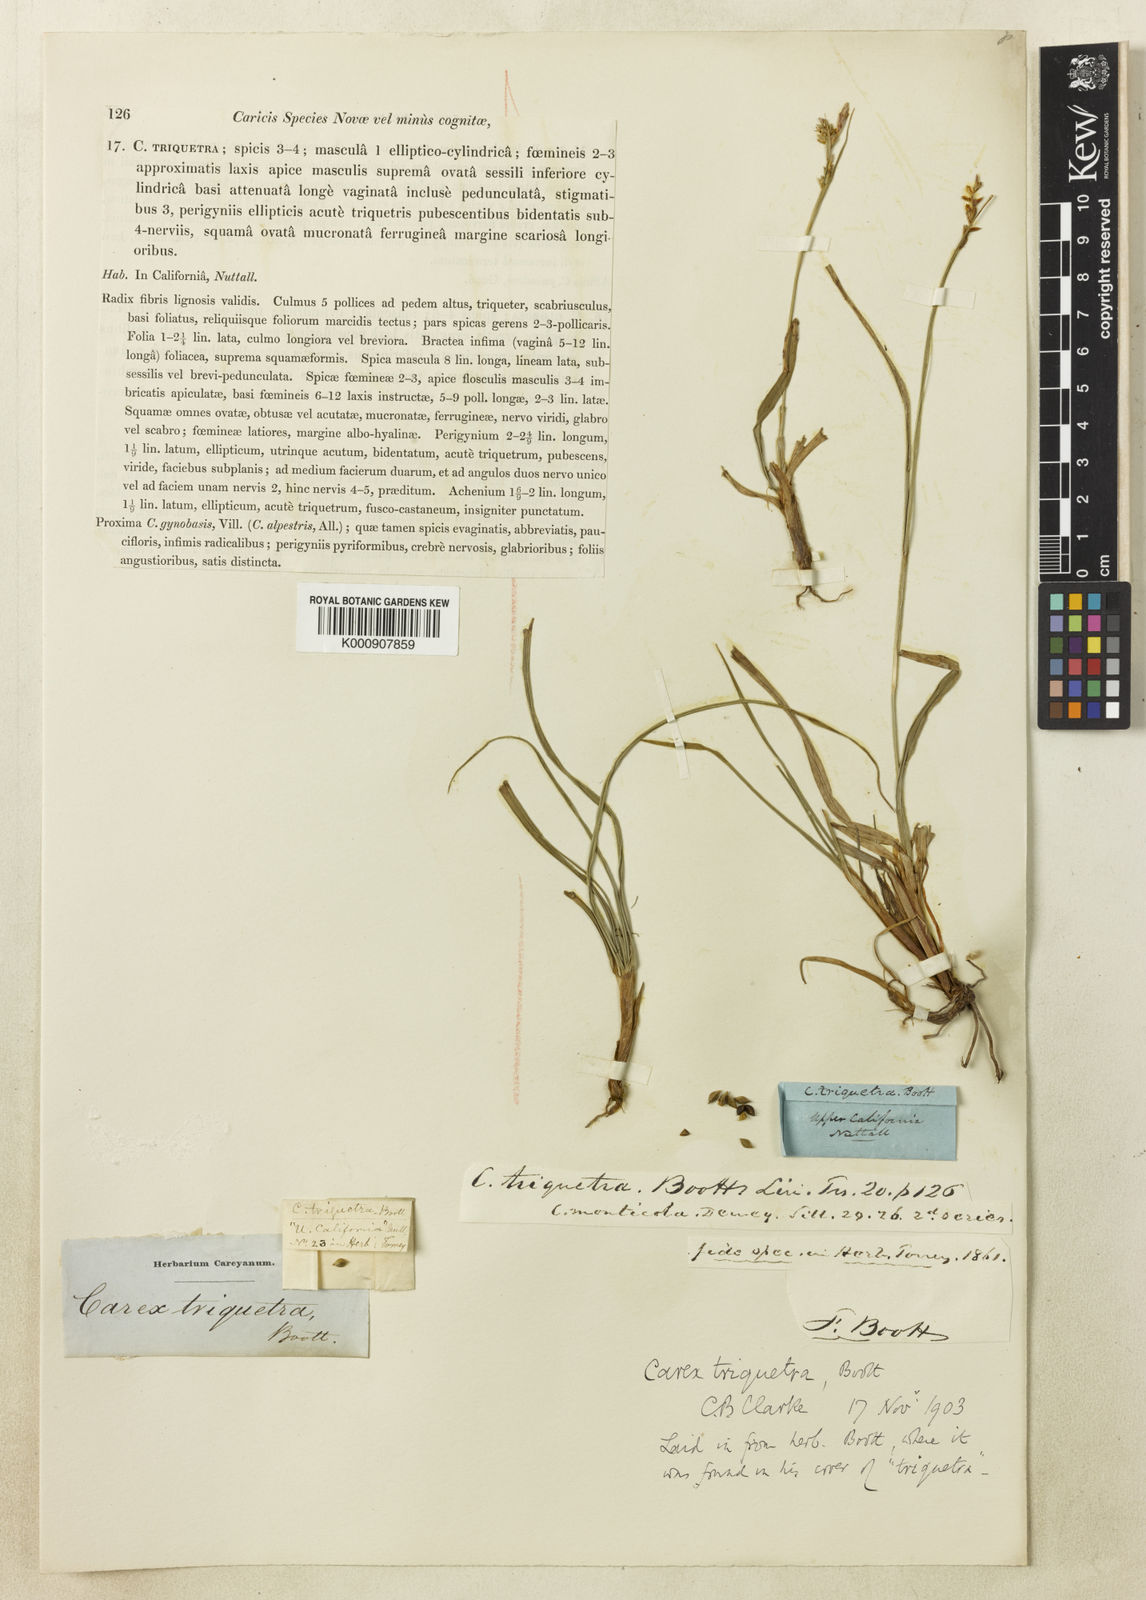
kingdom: Plantae
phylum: Tracheophyta
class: Liliopsida
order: Poales
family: Cyperaceae
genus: Carex
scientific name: Carex triquetra
